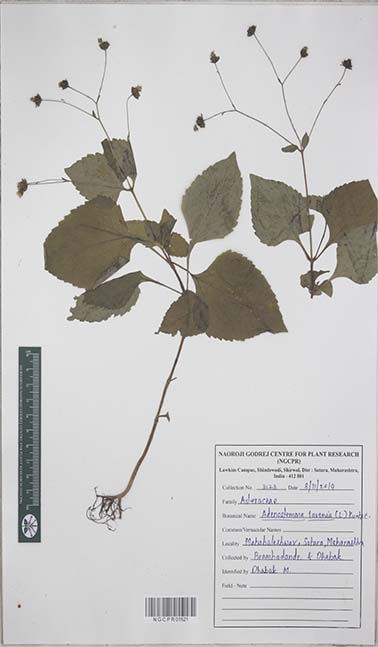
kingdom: Plantae
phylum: Tracheophyta
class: Magnoliopsida
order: Asterales
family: Asteraceae
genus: Adenostemma
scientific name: Adenostemma lavenia
